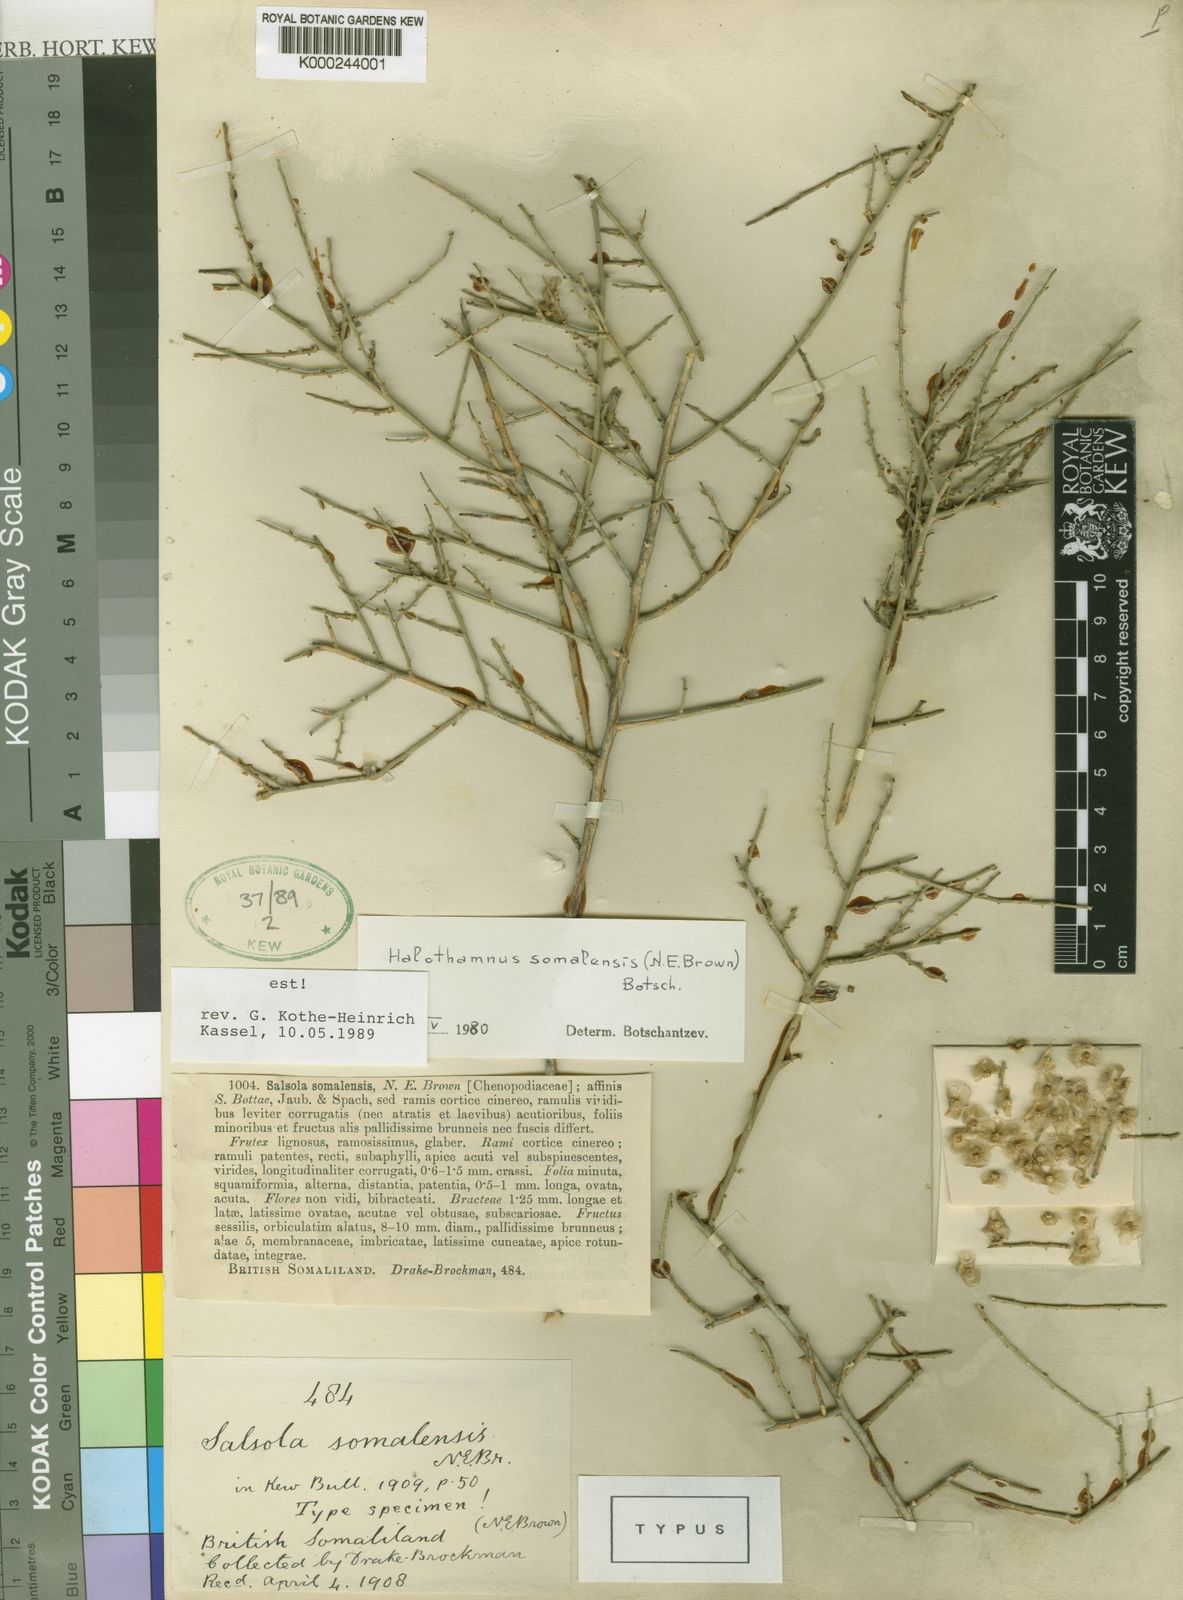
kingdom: Plantae
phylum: Tracheophyta
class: Magnoliopsida
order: Caryophyllales
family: Amaranthaceae
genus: Halothamnus
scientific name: Halothamnus somalensis
